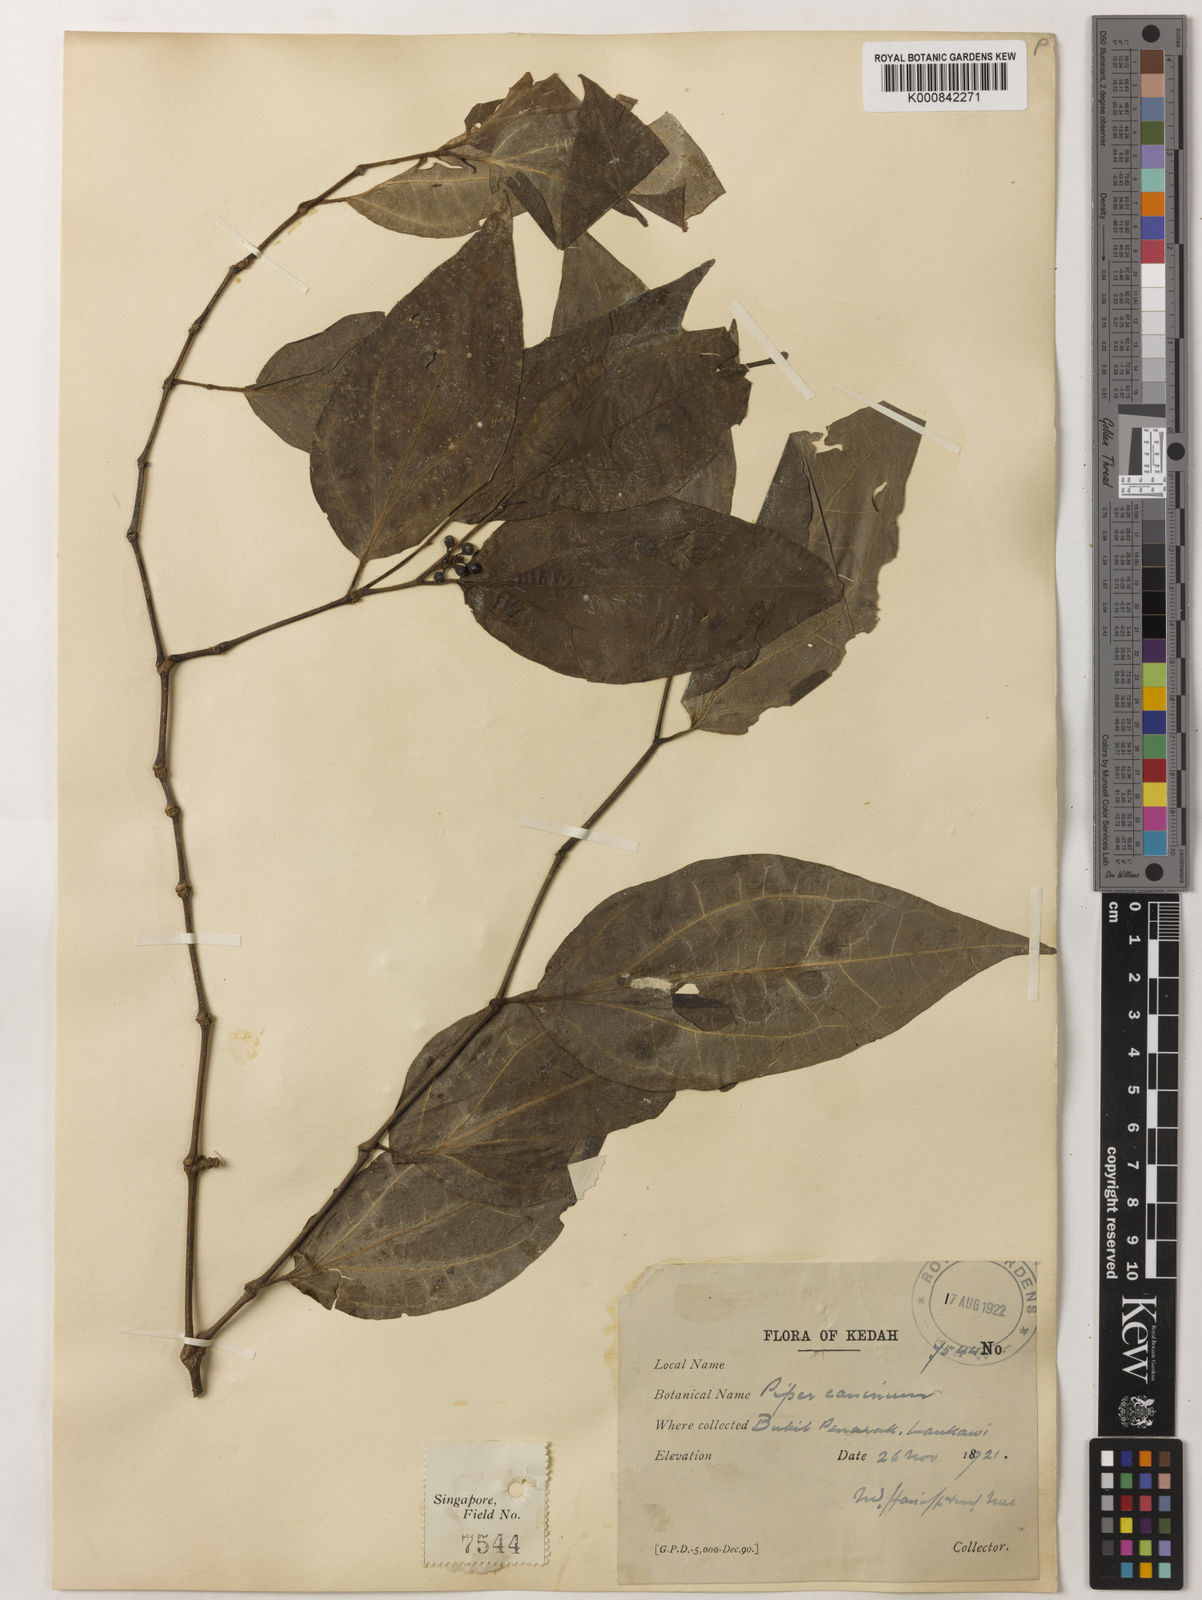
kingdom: Plantae
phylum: Tracheophyta
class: Magnoliopsida
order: Piperales
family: Piperaceae
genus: Piper
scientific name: Piper lanatum
